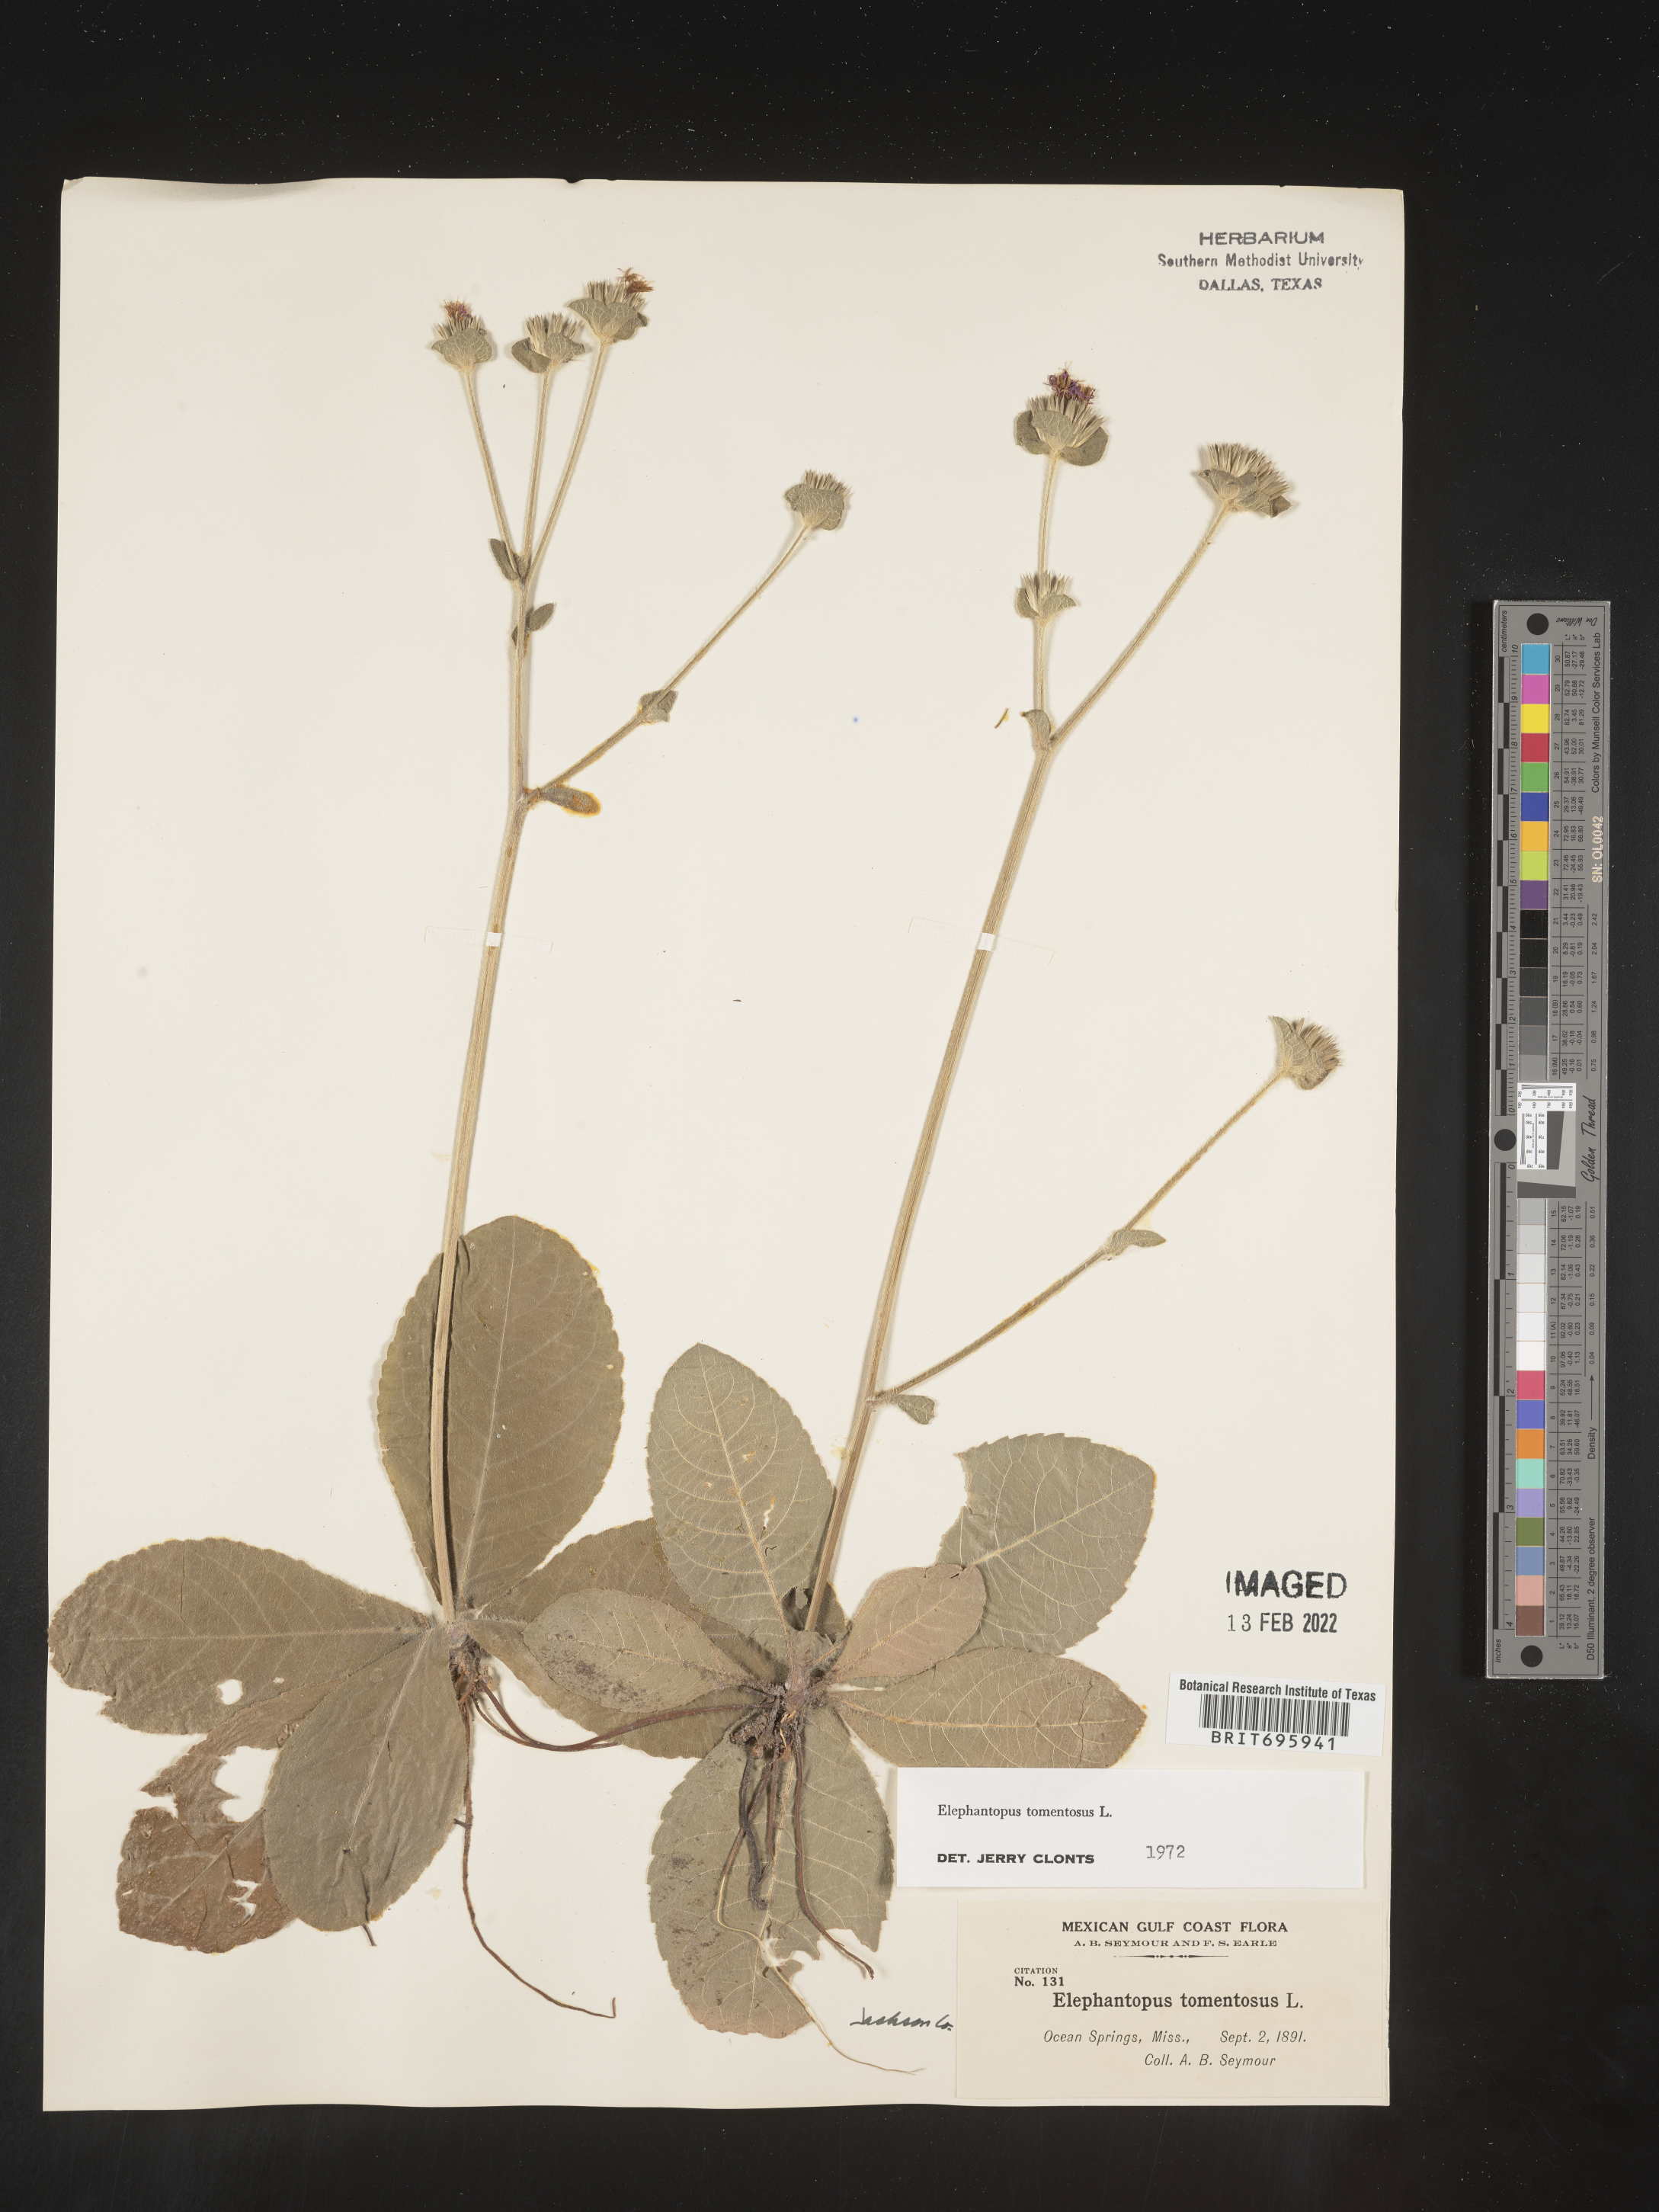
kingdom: Plantae
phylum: Tracheophyta
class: Magnoliopsida
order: Asterales
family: Asteraceae
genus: Elephantopus
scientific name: Elephantopus tomentosus
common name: Tobacco-weed
